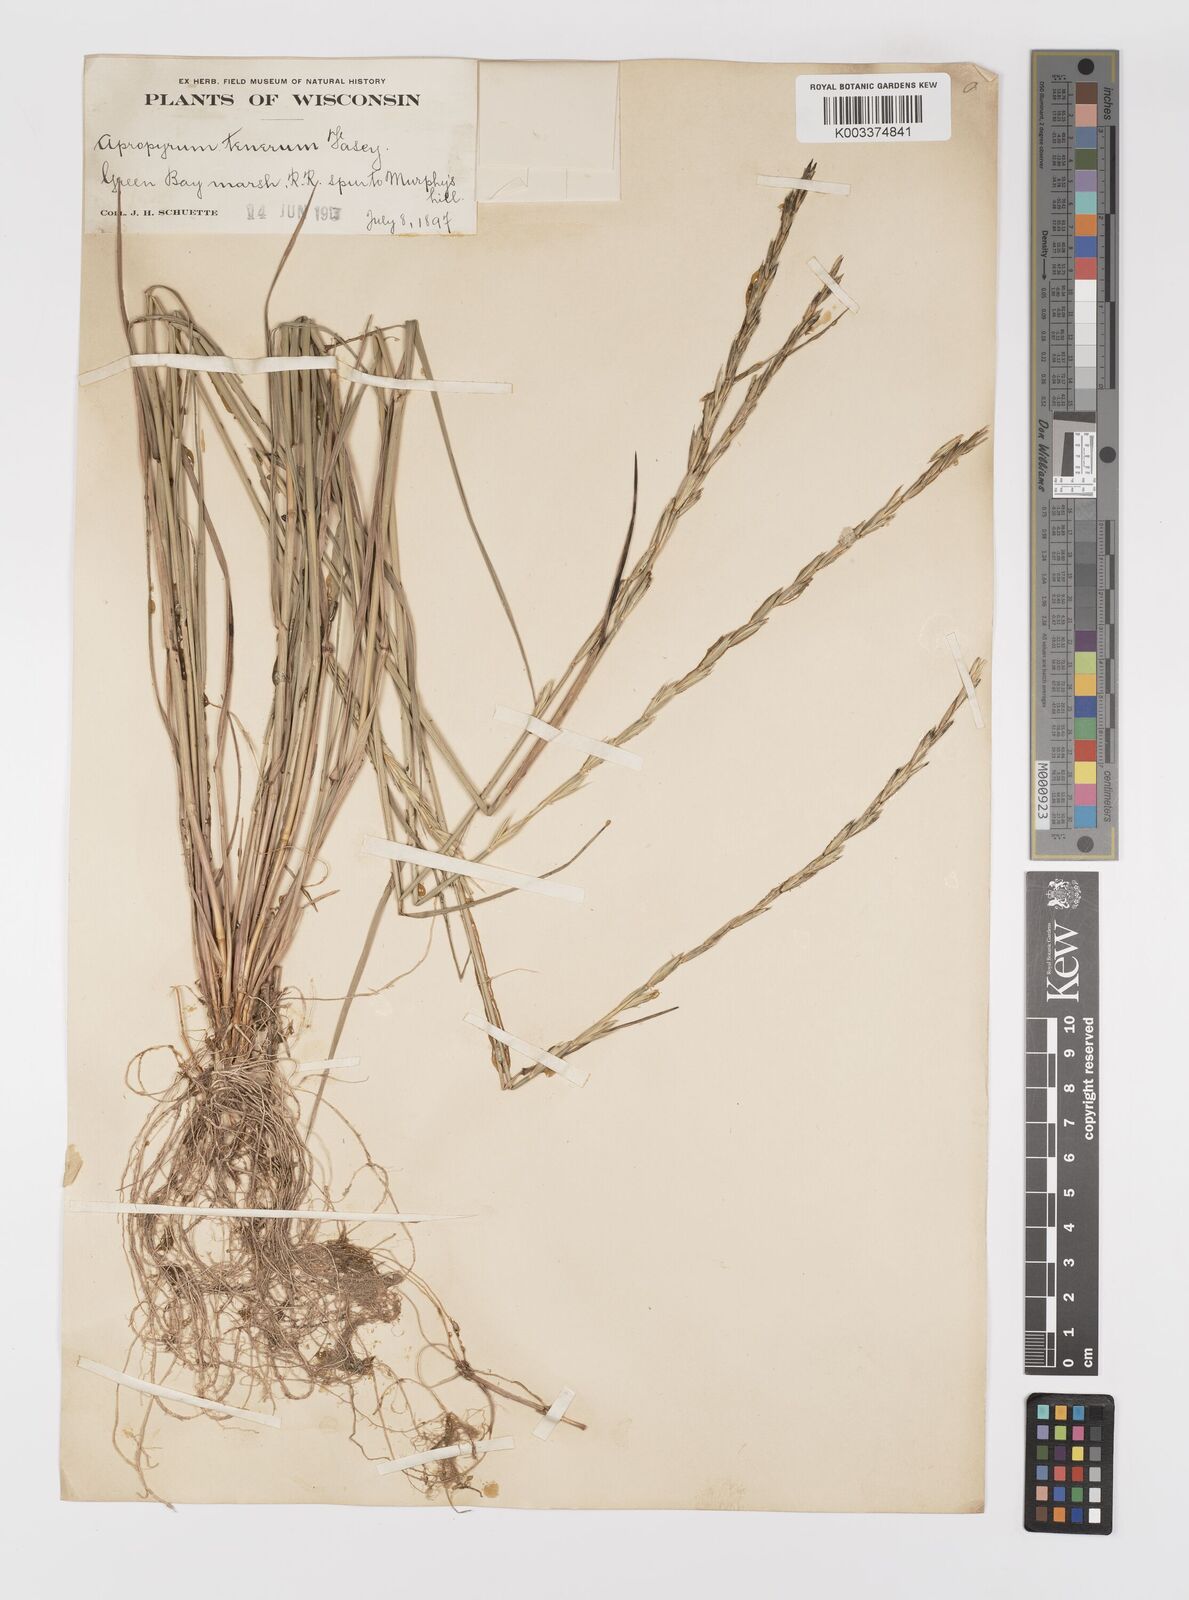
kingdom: Plantae
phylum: Tracheophyta
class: Liliopsida
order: Poales
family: Poaceae
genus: Elymus
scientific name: Elymus violaceus
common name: Arctic wheatgrass
